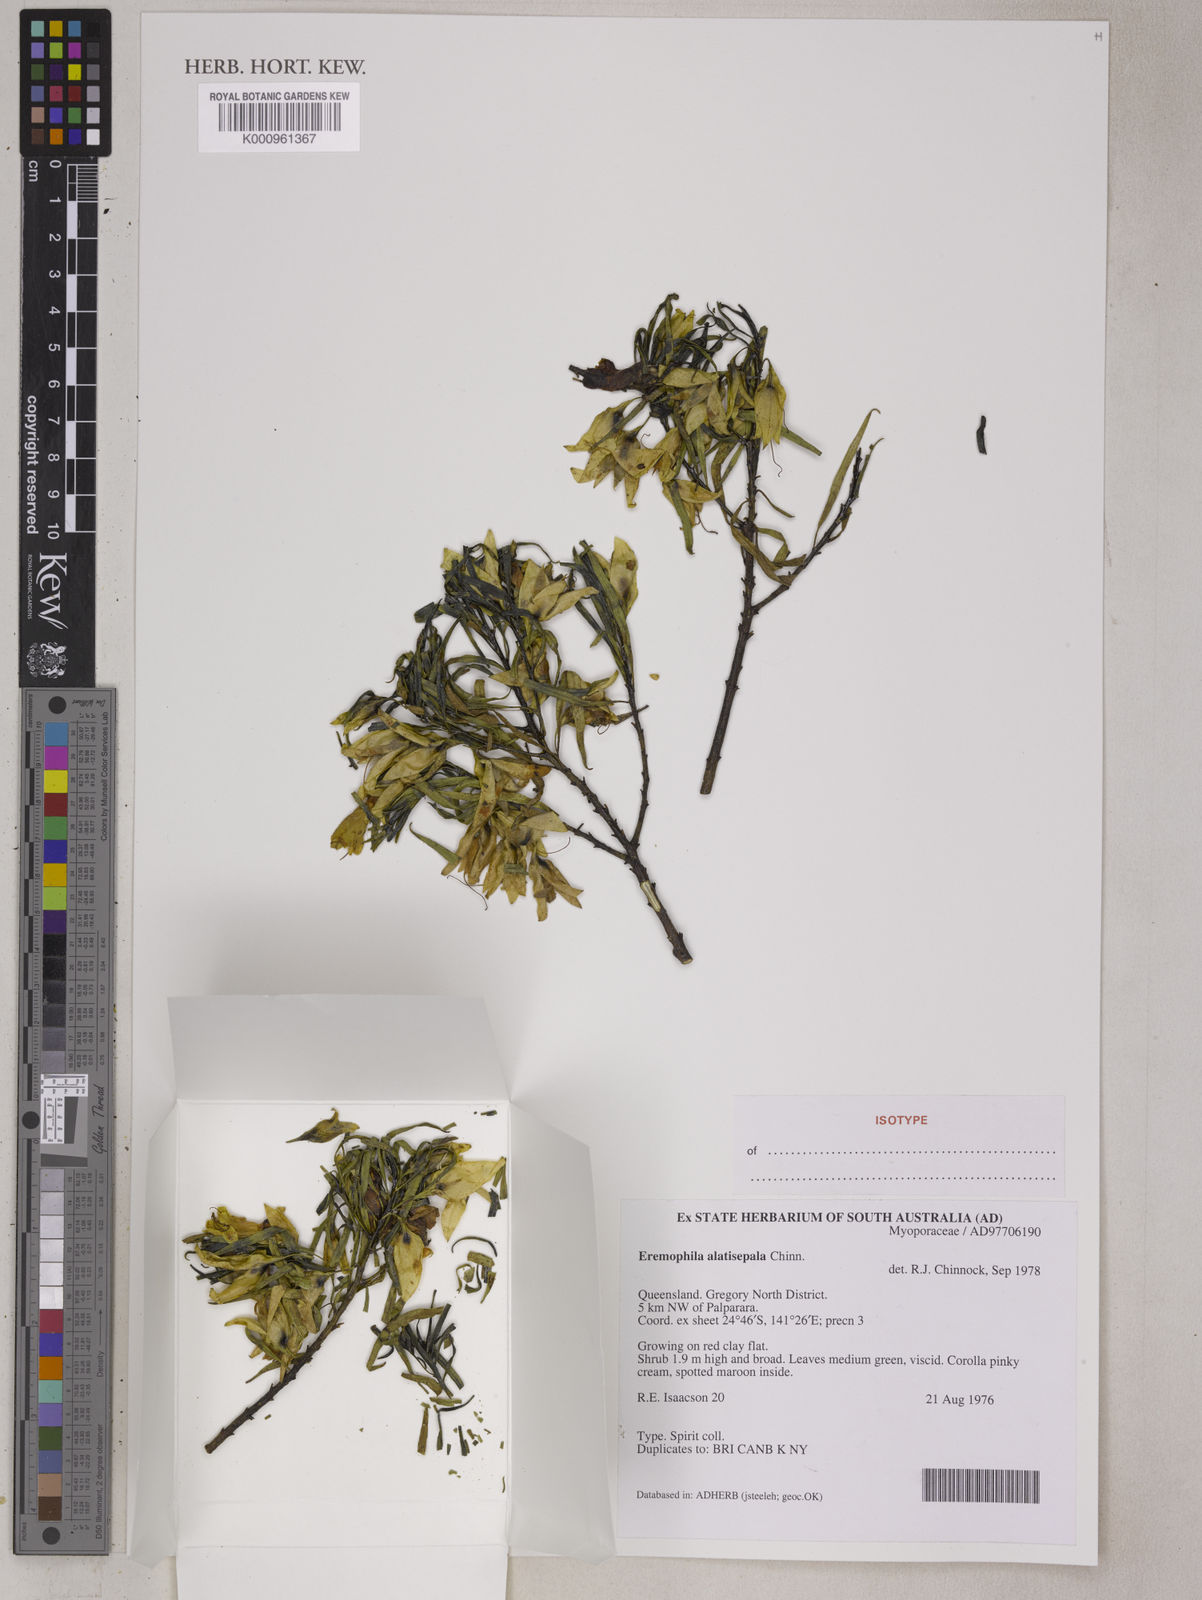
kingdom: Plantae
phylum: Tracheophyta
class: Magnoliopsida
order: Lamiales
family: Scrophulariaceae
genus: Eremophila
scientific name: Eremophila alatisepala
